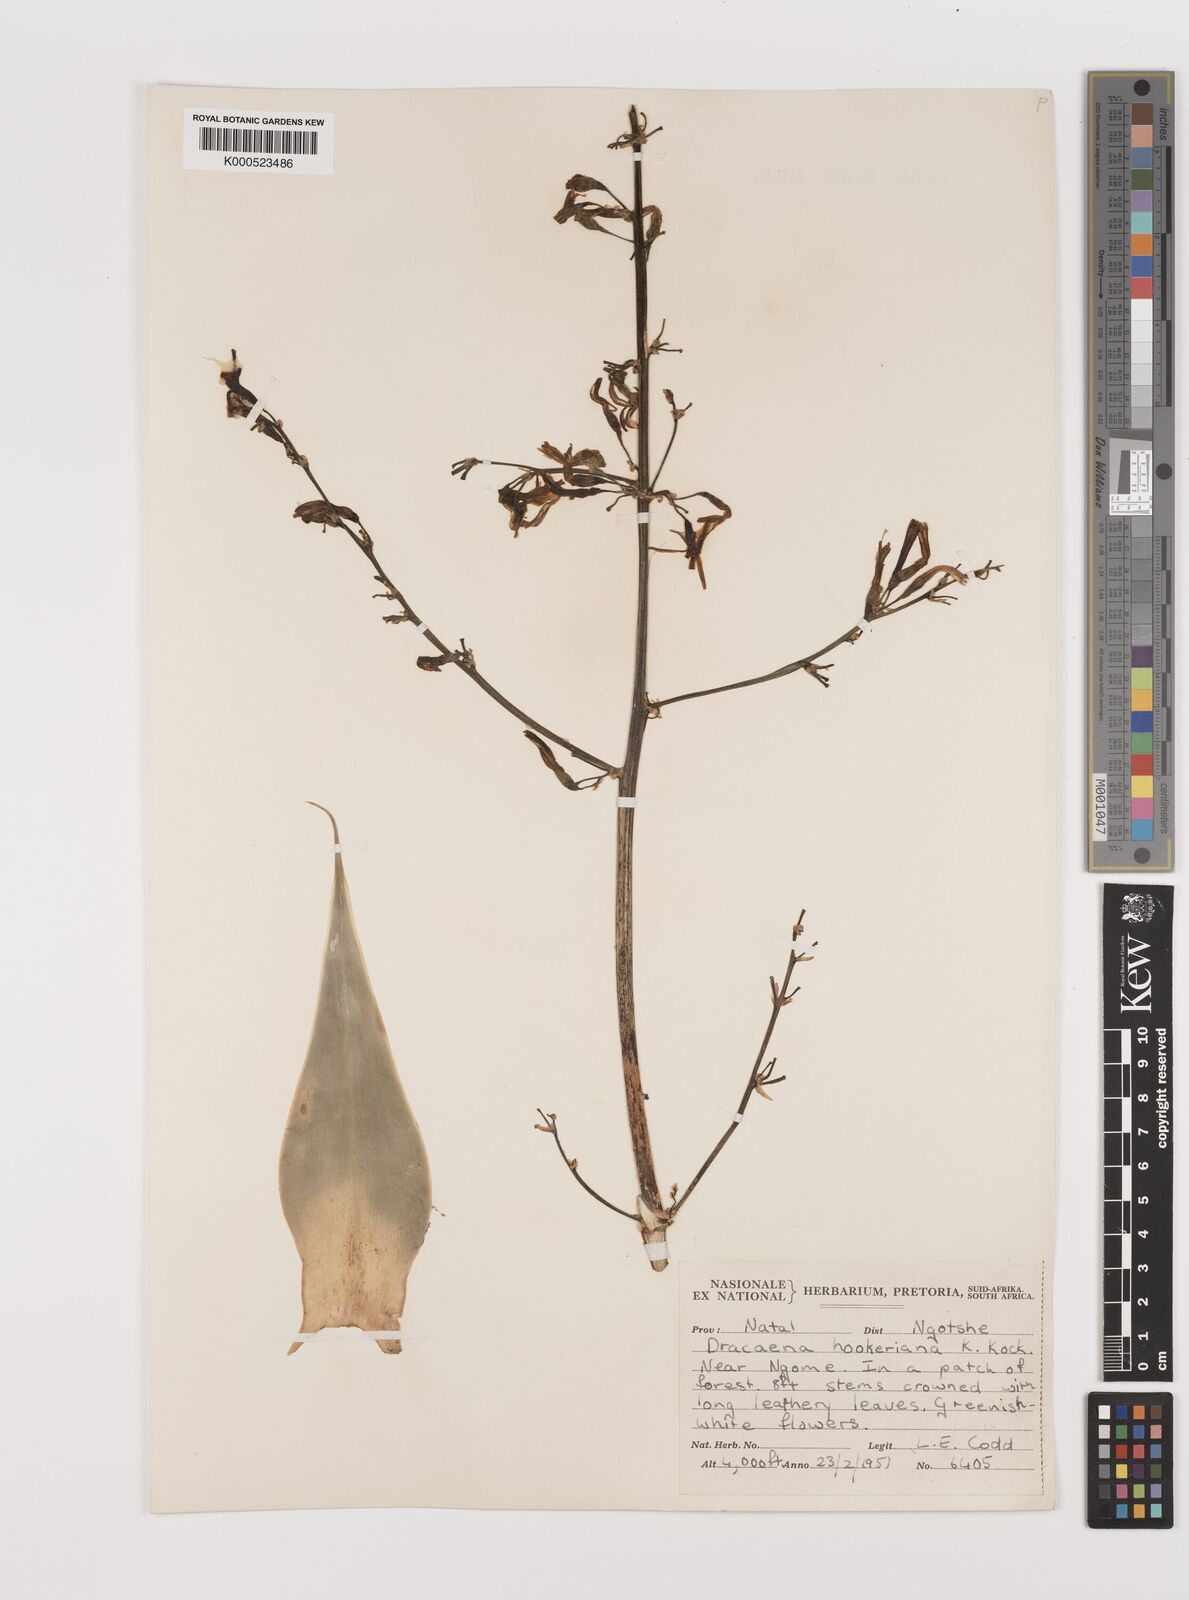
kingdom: Plantae
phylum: Tracheophyta
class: Liliopsida
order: Asparagales
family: Asparagaceae
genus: Dracaena
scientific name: Dracaena aletriformis
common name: Large-leaved dragon tree
